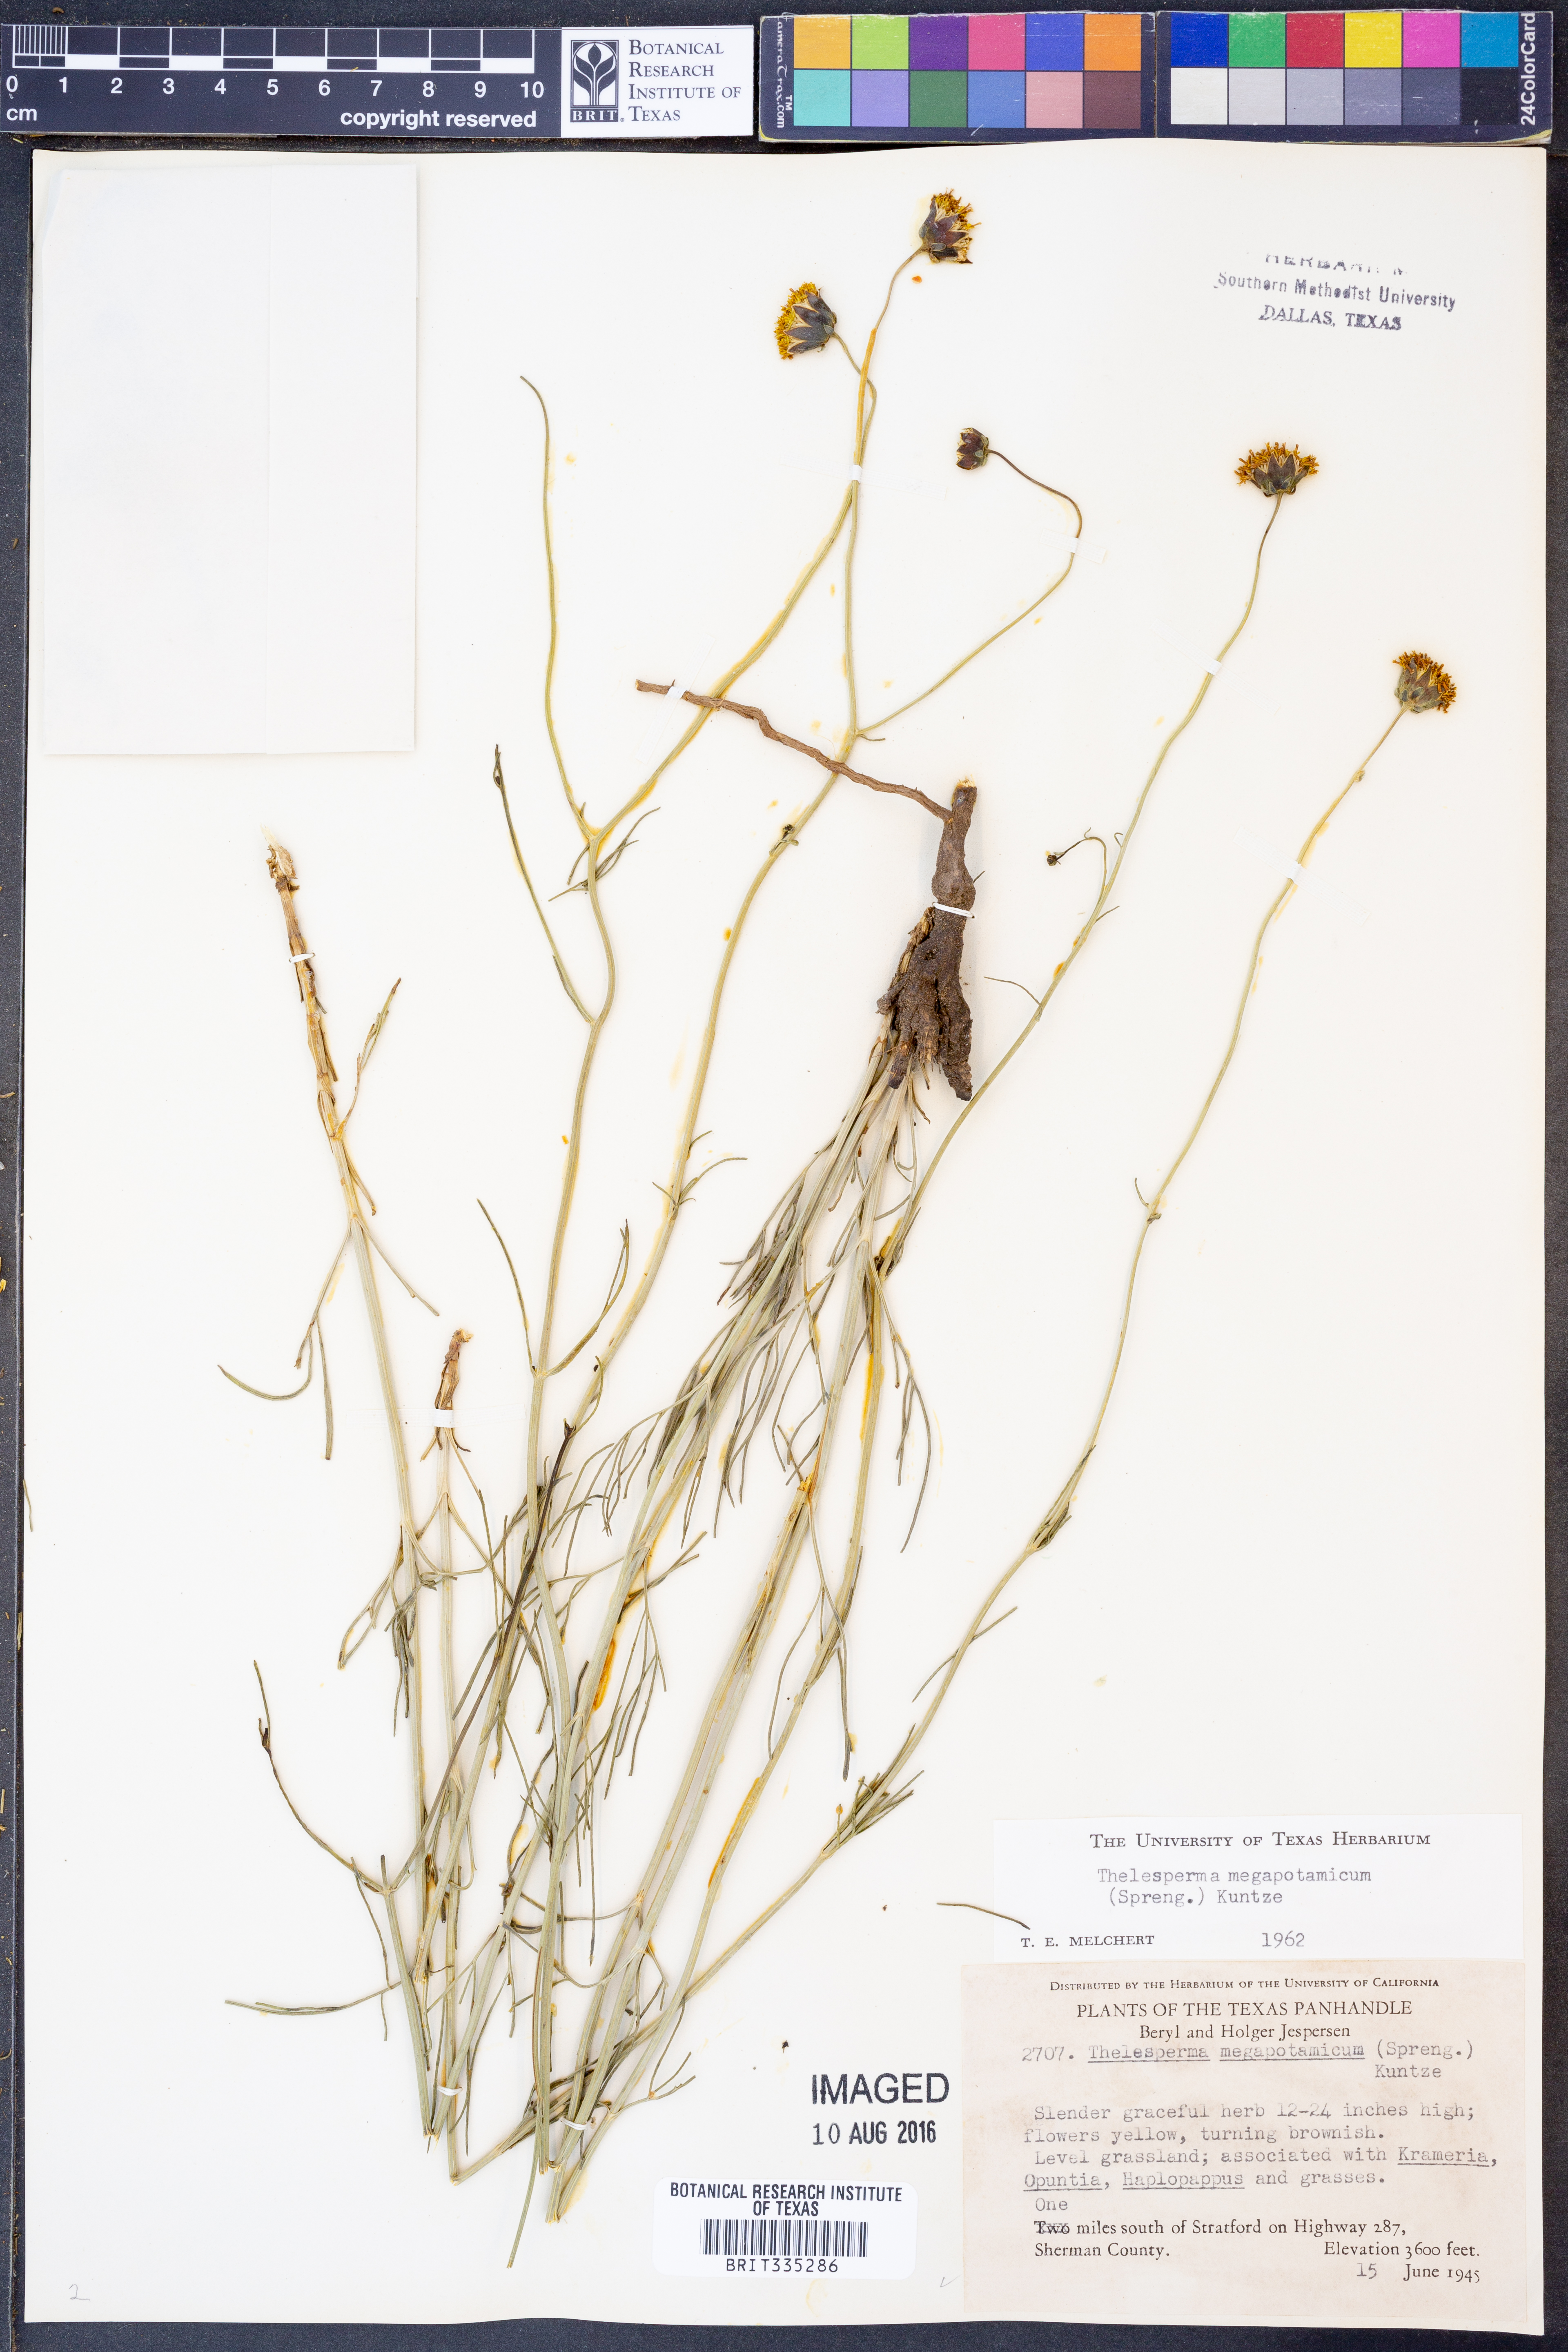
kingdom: Plantae
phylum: Tracheophyta
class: Magnoliopsida
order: Asterales
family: Asteraceae
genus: Thelesperma
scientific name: Thelesperma megapotamicum
